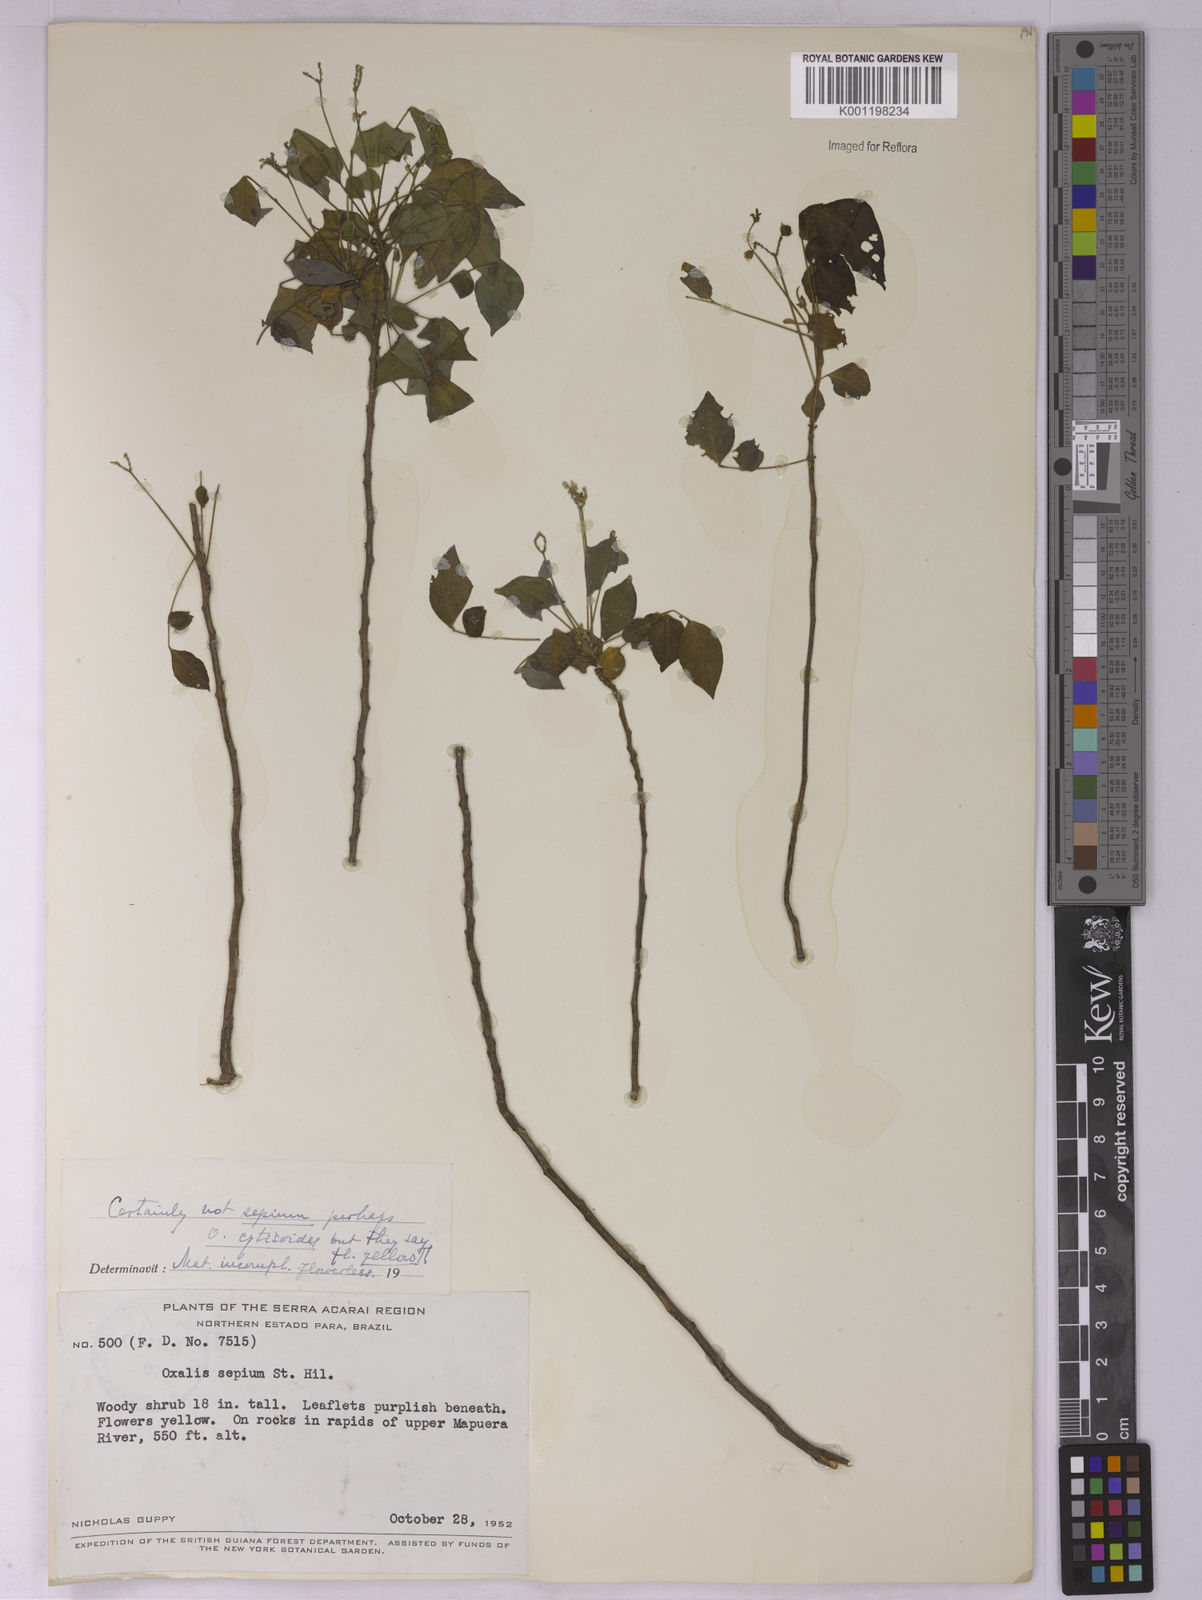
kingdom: Plantae
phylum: Tracheophyta
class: Magnoliopsida
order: Oxalidales
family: Oxalidaceae
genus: Oxalis
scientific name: Oxalis cytisoides
